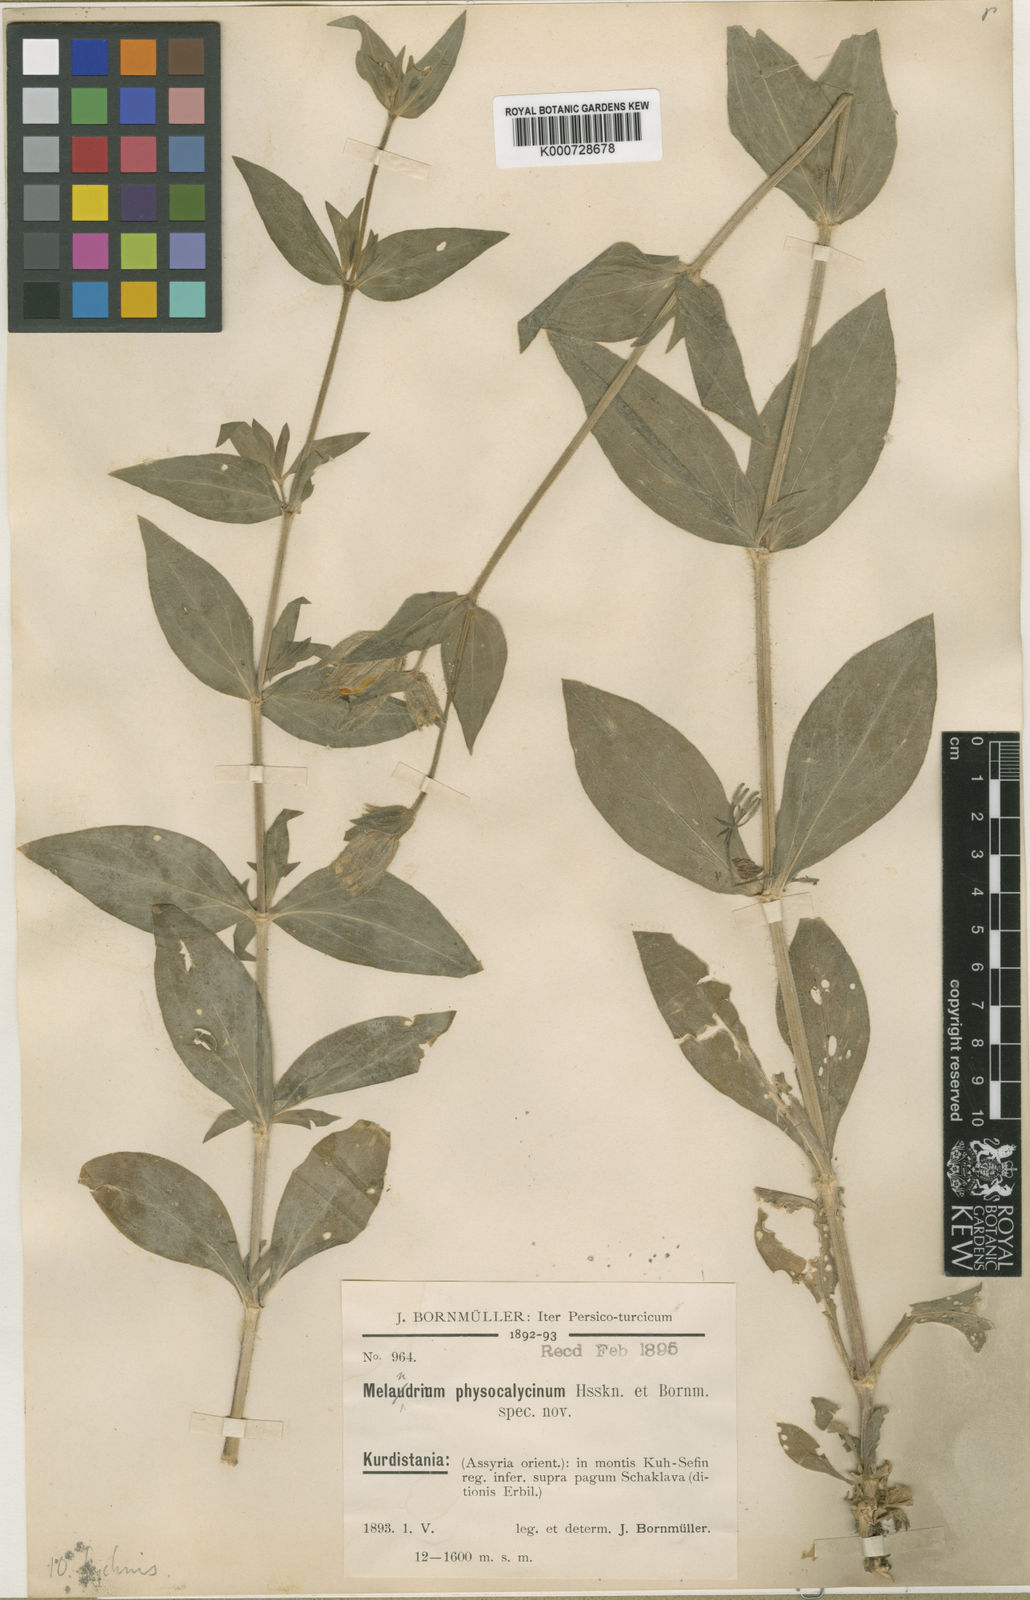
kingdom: Plantae
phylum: Tracheophyta
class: Magnoliopsida
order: Caryophyllales
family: Caryophyllaceae
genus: Silene
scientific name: Silene physocalycina
